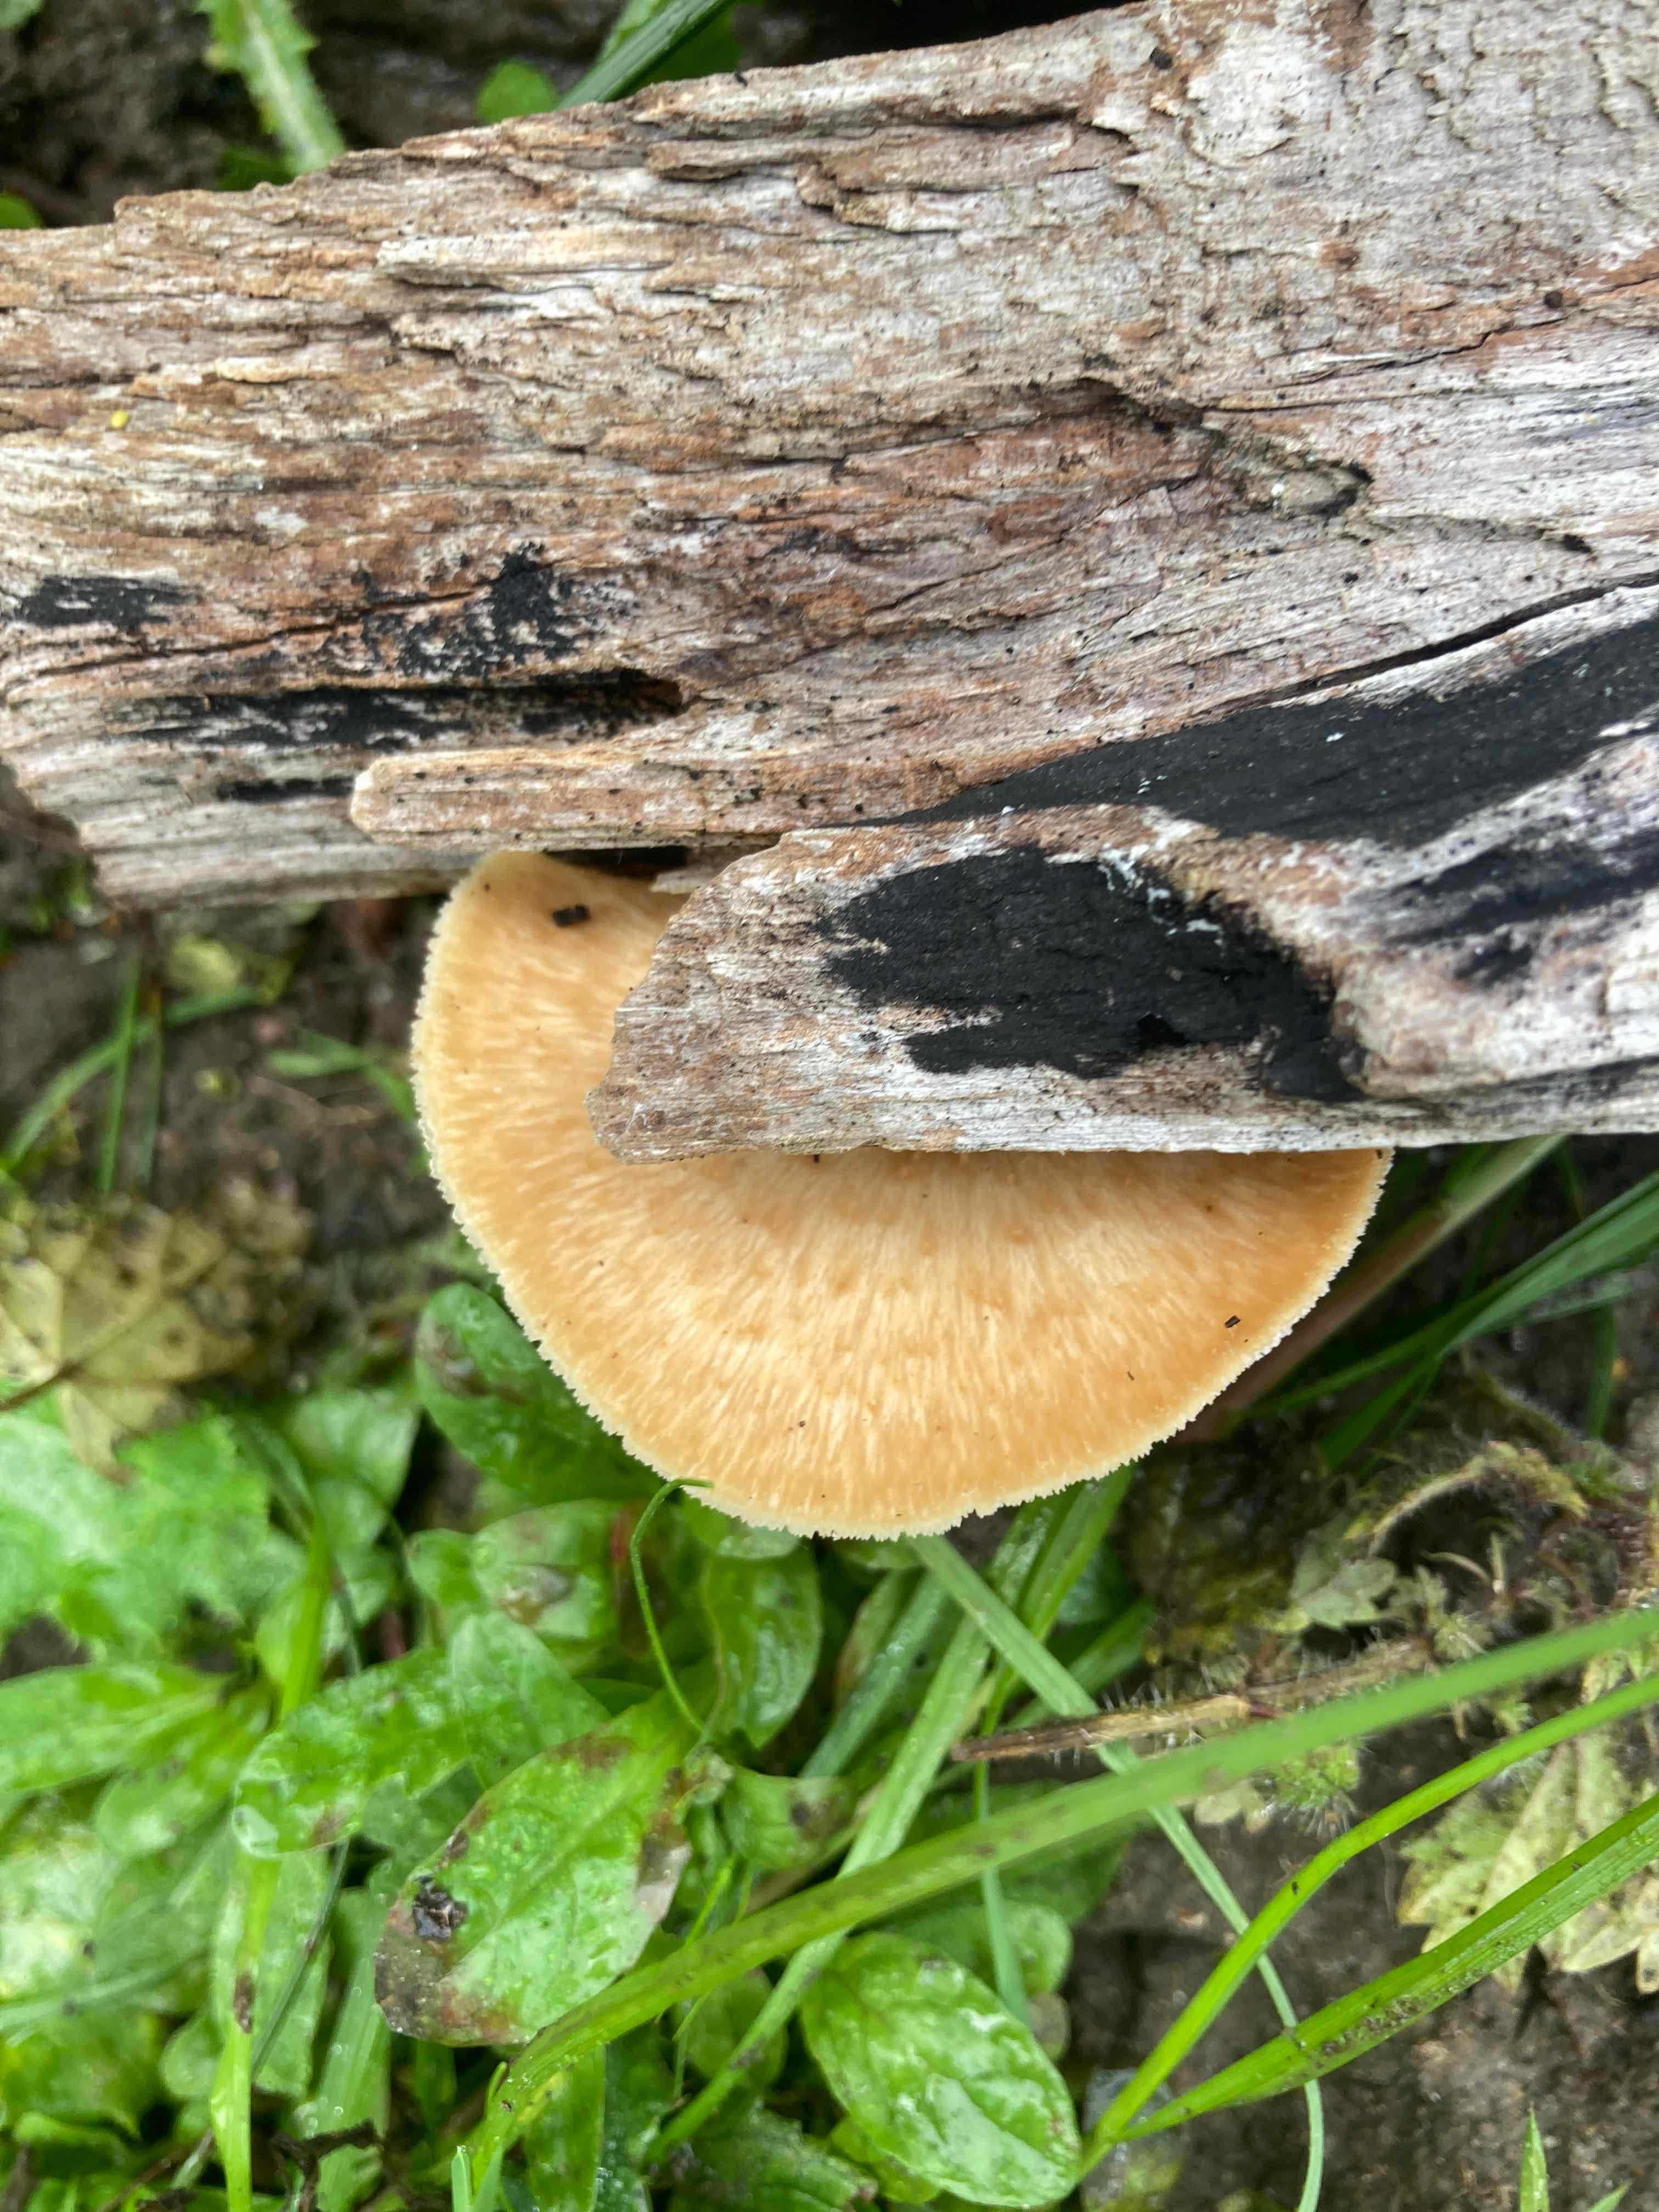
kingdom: Fungi
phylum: Basidiomycota
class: Agaricomycetes
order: Polyporales
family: Polyporaceae
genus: Polyporus
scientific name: Polyporus tuberaster
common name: knoldet stilkporesvamp
